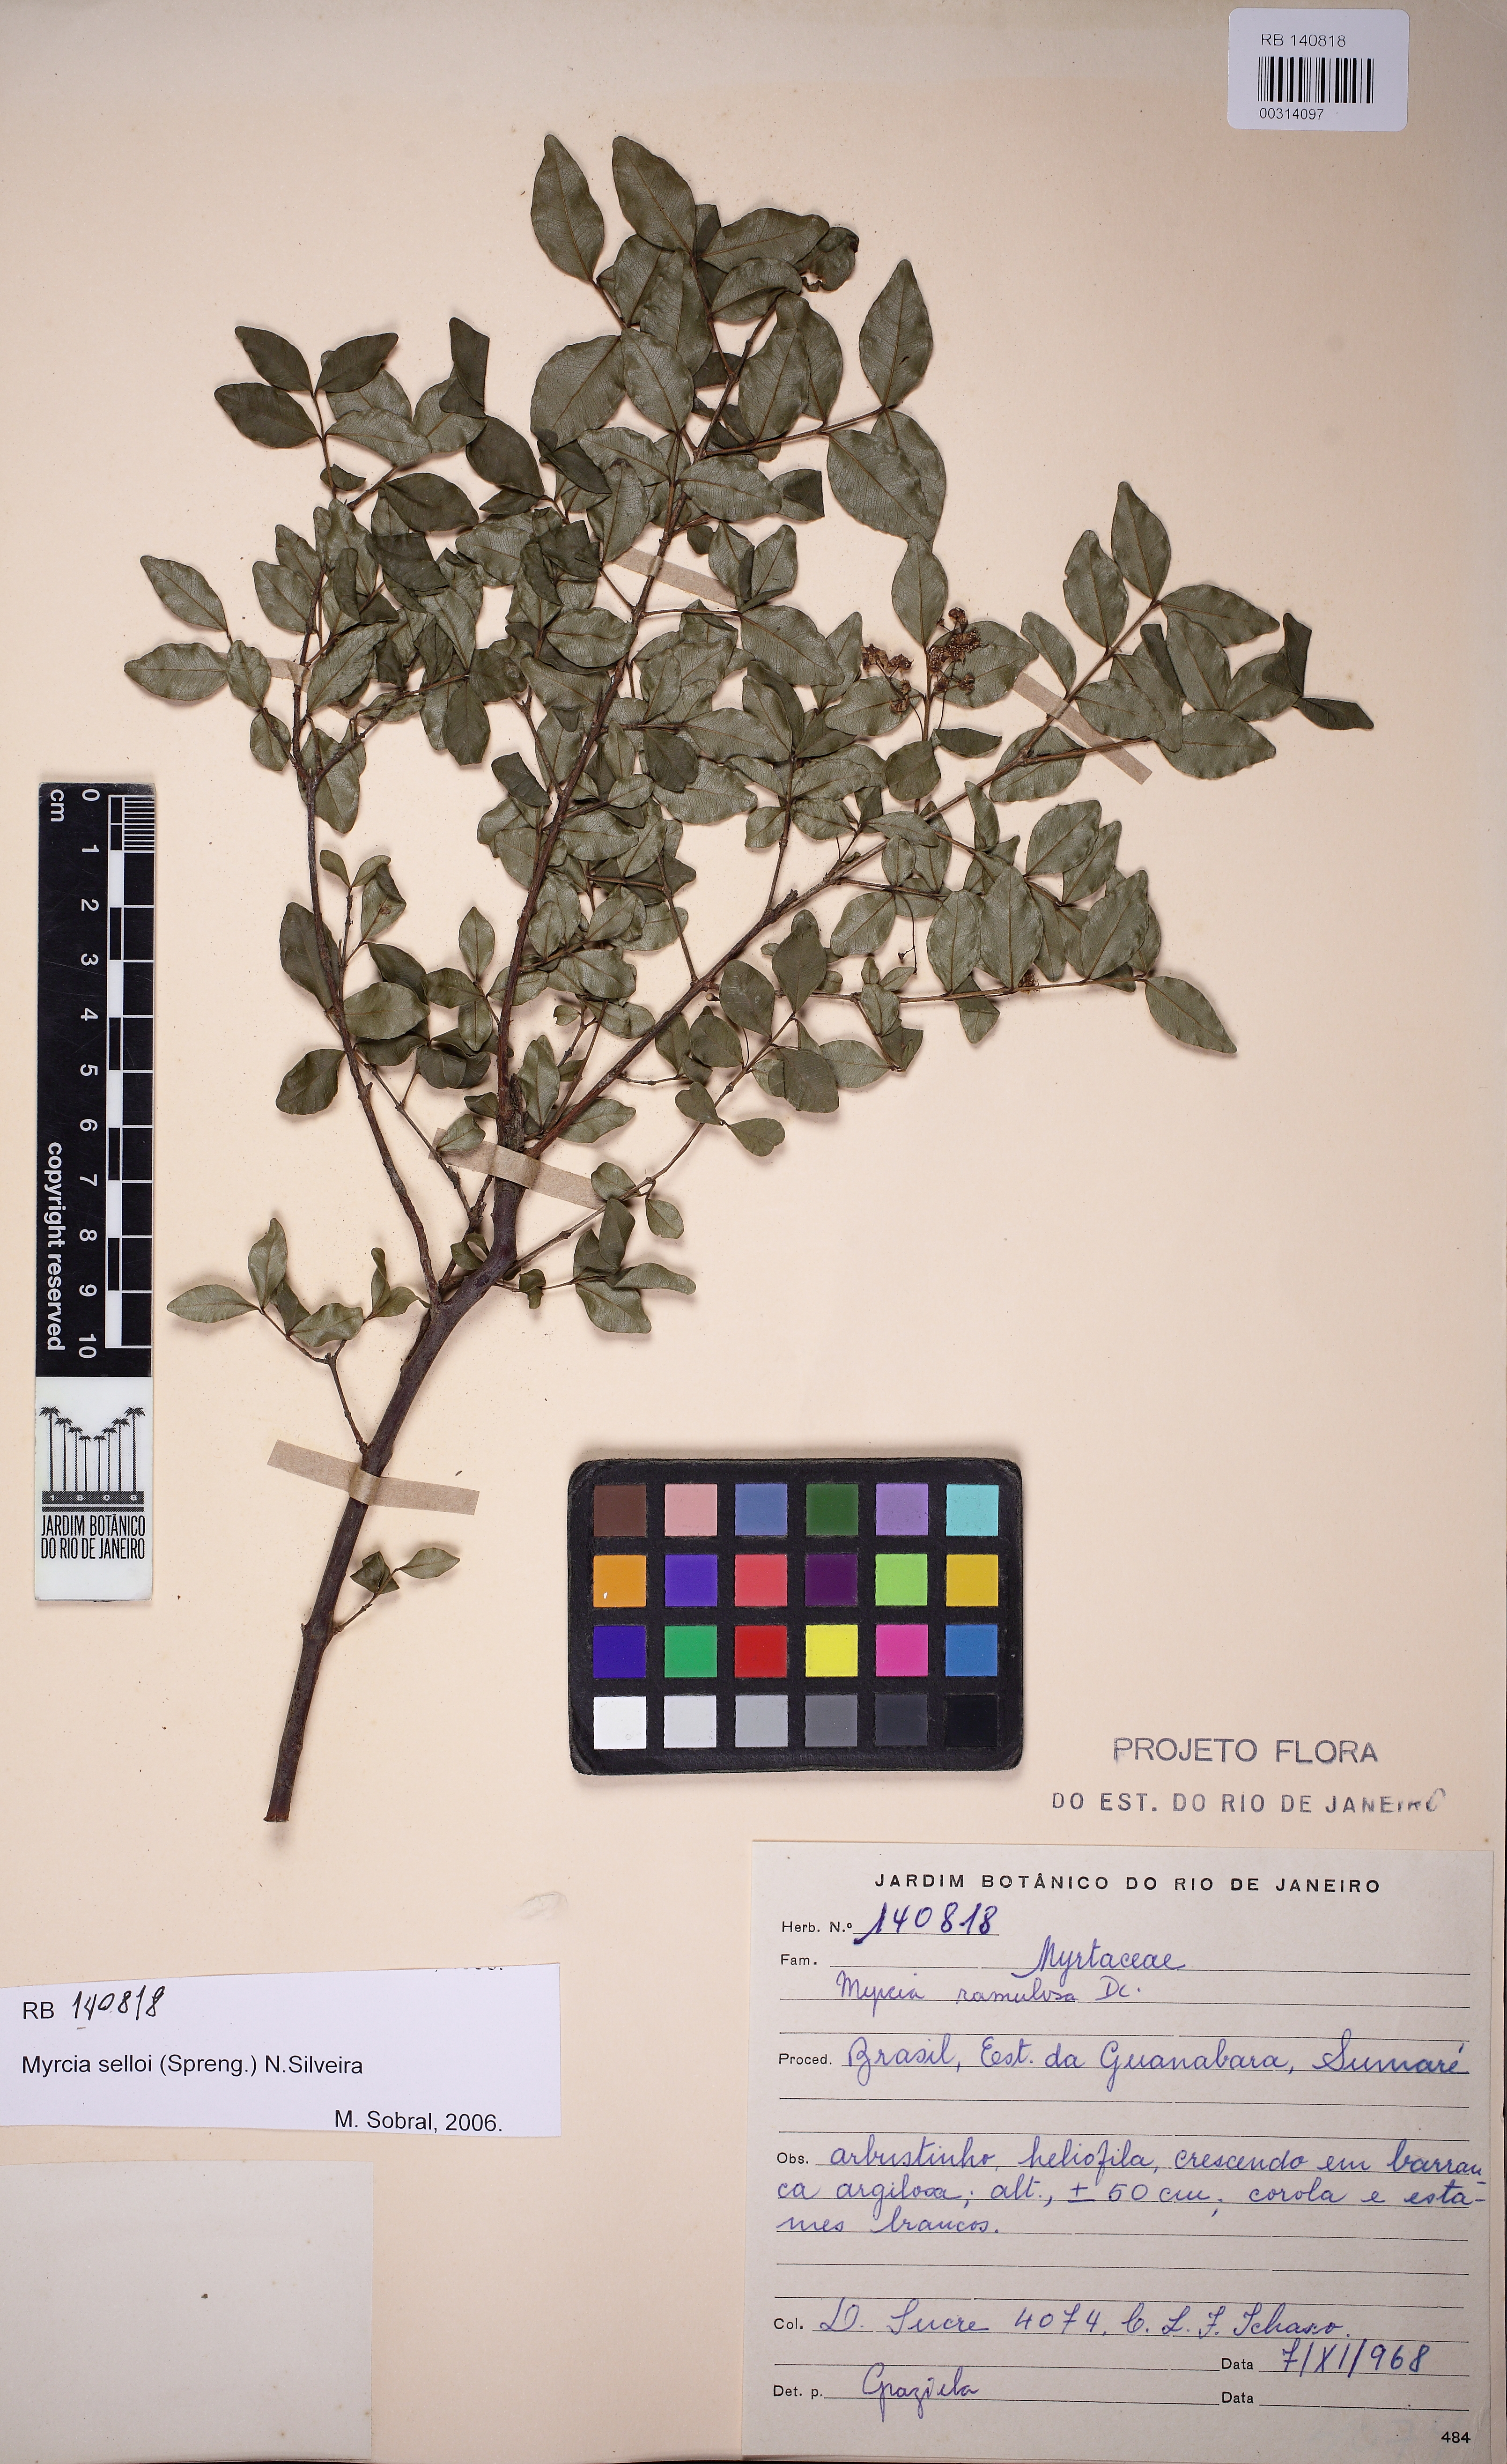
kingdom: Plantae
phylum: Tracheophyta
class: Magnoliopsida
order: Myrtales
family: Myrtaceae
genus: Myrcia
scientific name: Myrcia selloi
